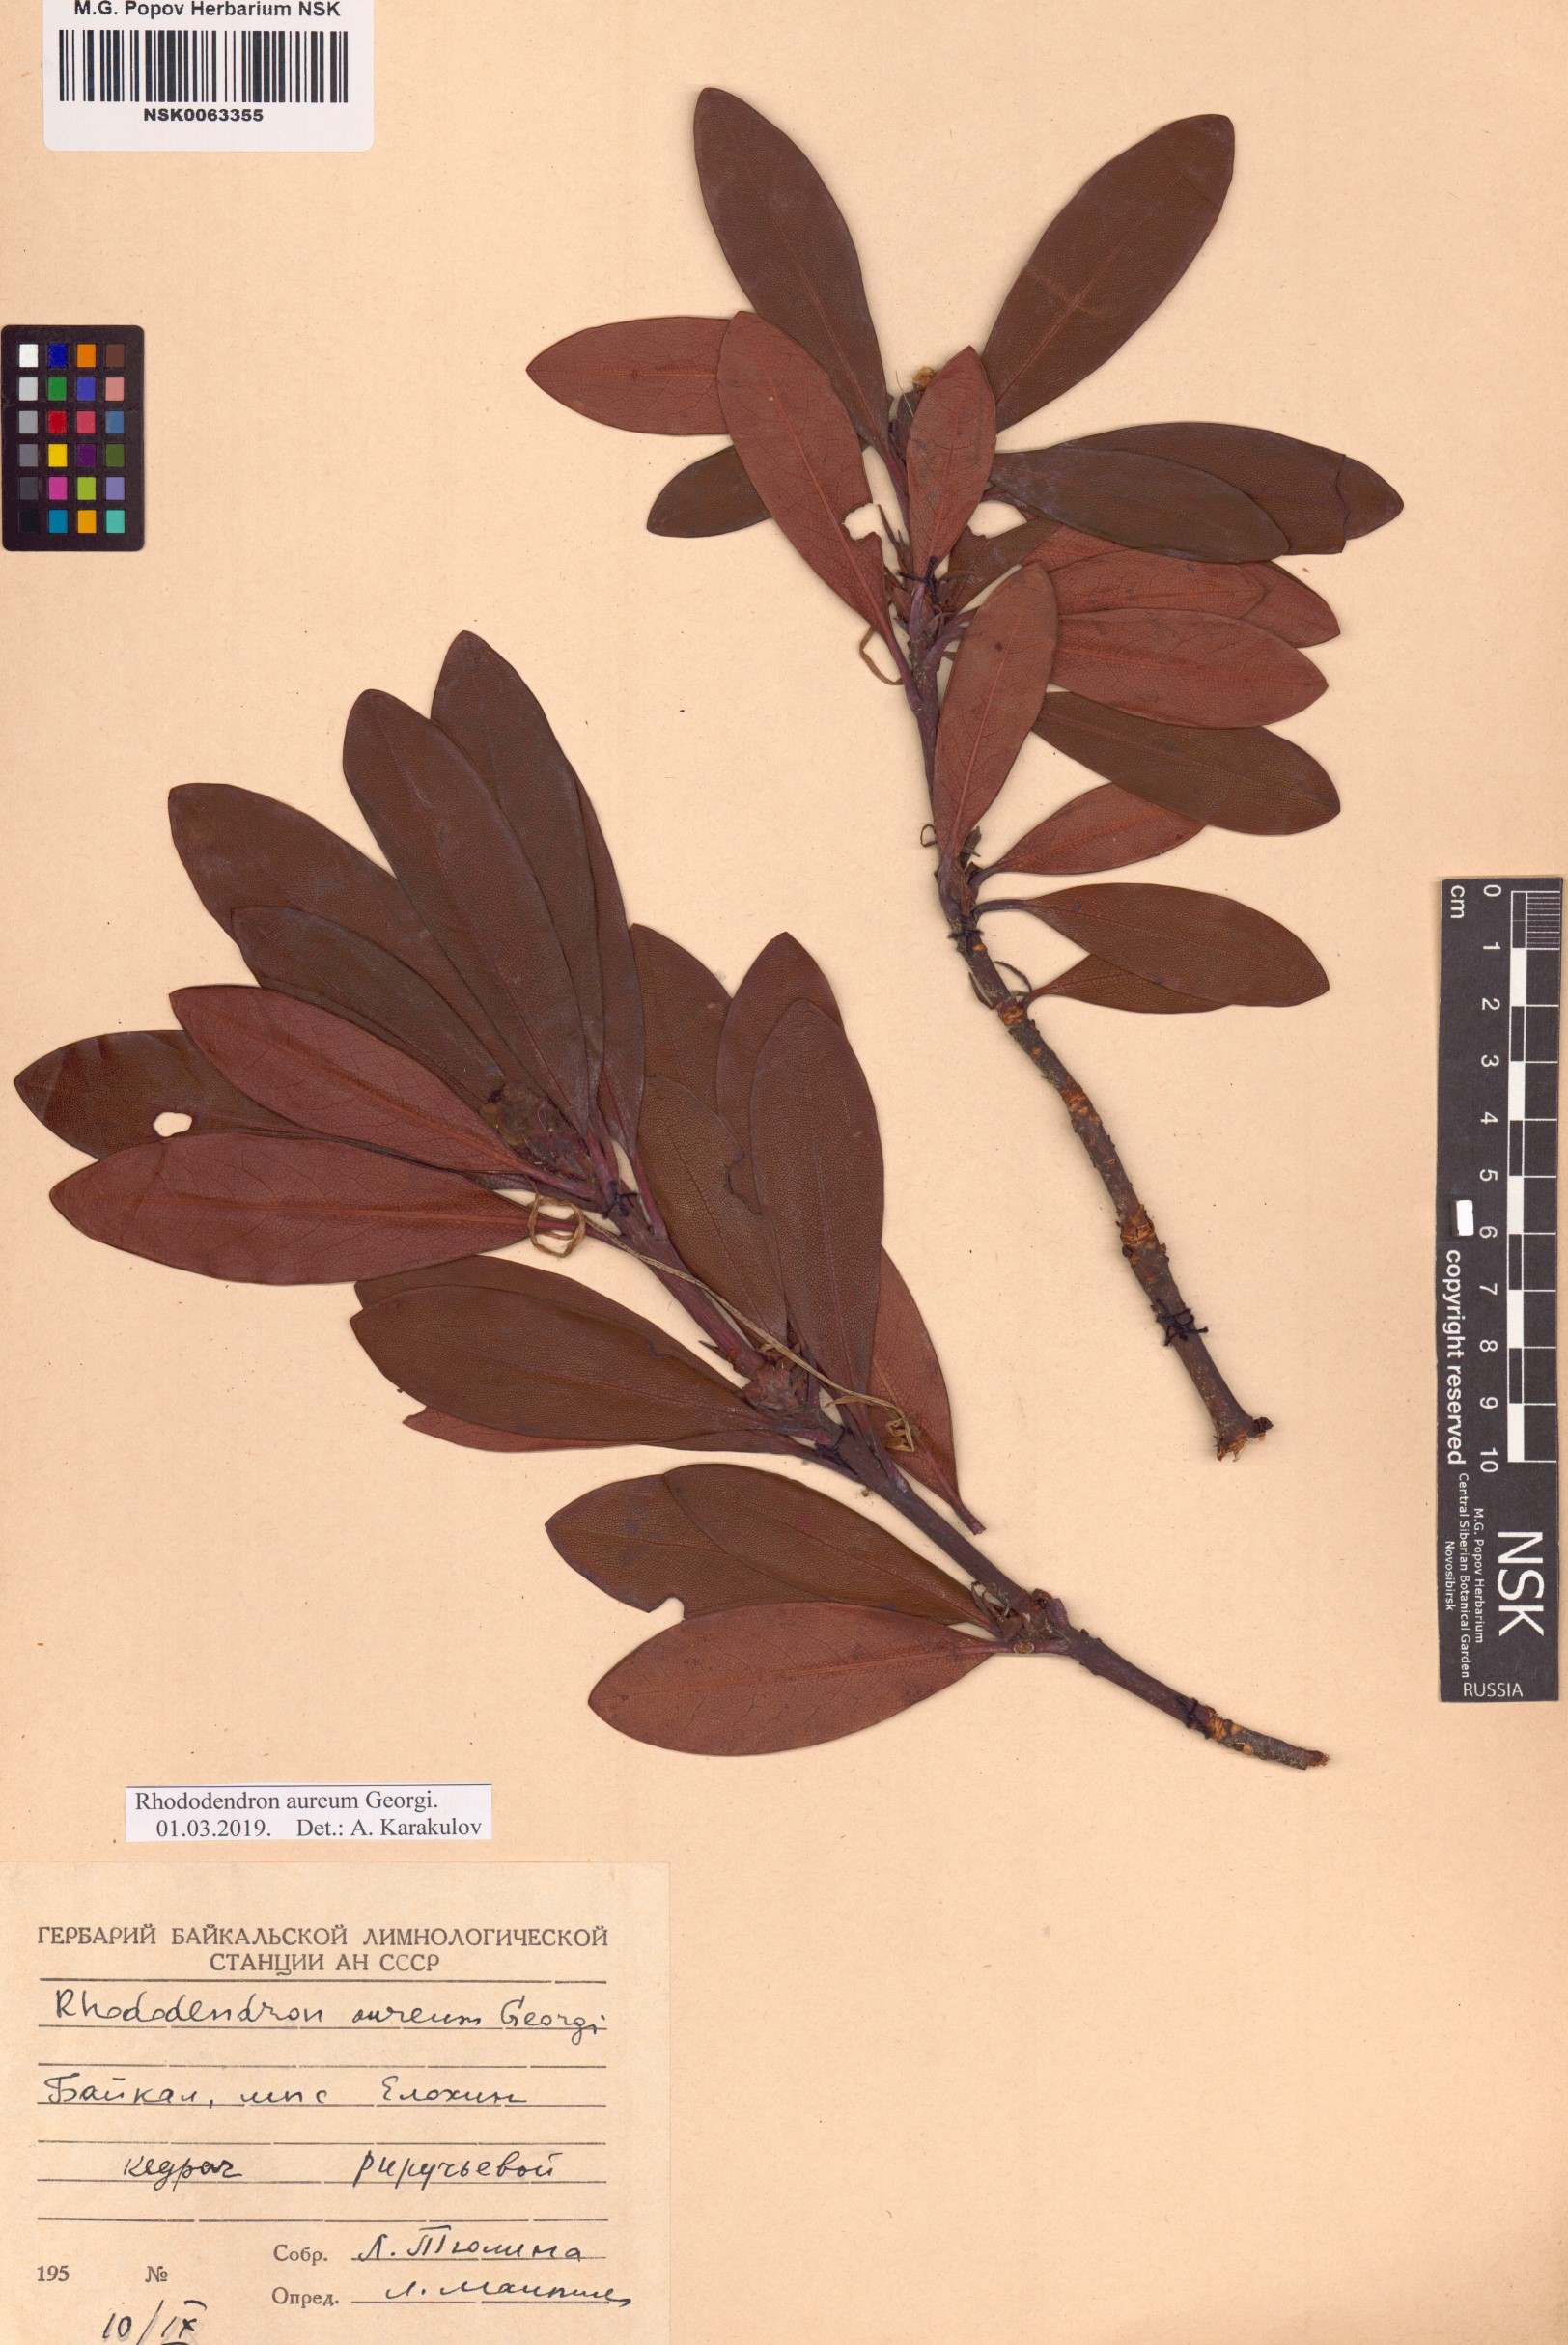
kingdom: Plantae
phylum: Tracheophyta
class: Magnoliopsida
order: Ericales
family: Ericaceae
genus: Rhododendron
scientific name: Rhododendron aureum
